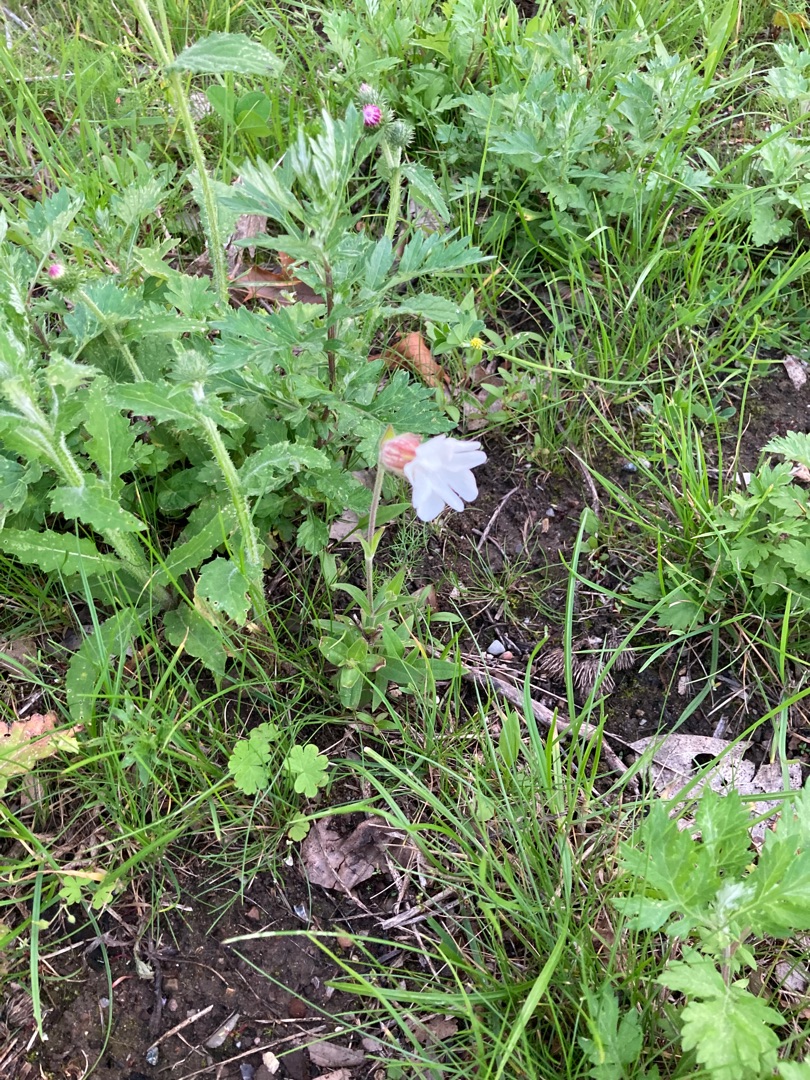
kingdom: Plantae
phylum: Tracheophyta
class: Magnoliopsida
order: Caryophyllales
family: Caryophyllaceae
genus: Silene
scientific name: Silene latifolia
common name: Aftenpragtstjerne
